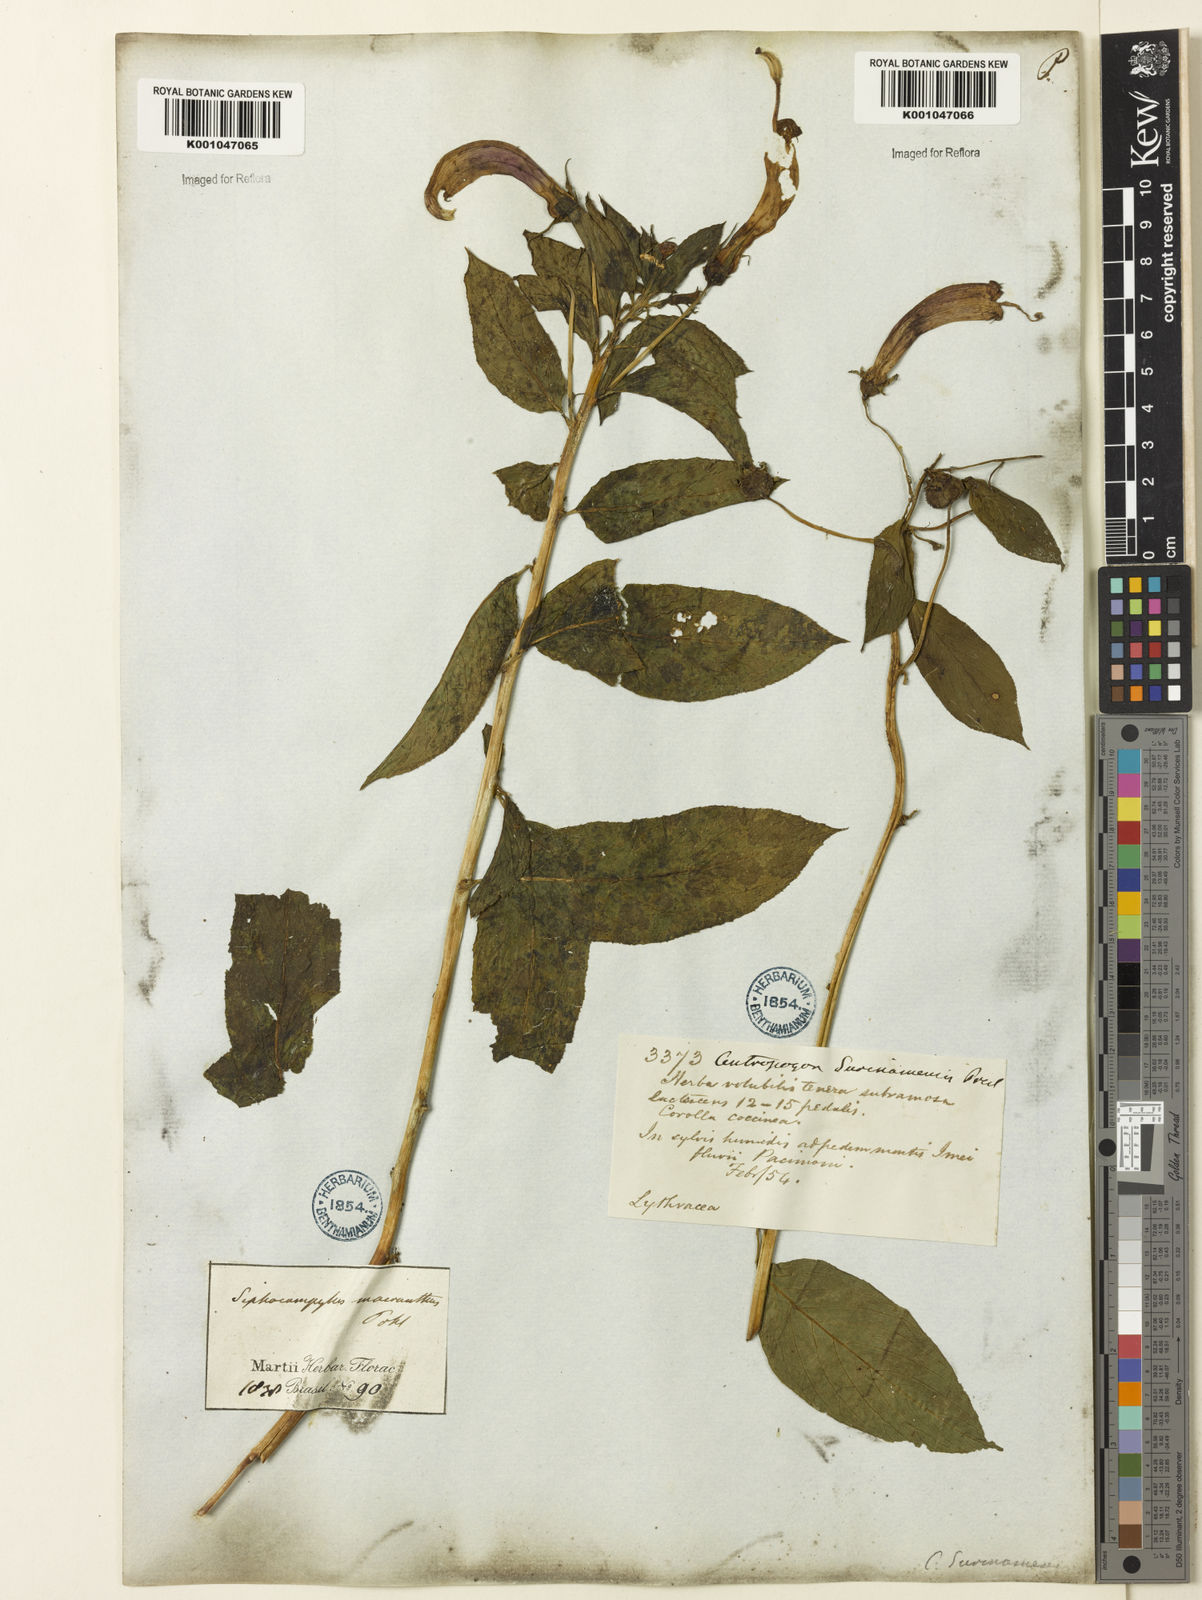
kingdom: Plantae
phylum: Tracheophyta
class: Magnoliopsida
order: Asterales
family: Campanulaceae
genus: Centropogon
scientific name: Centropogon cornutus
